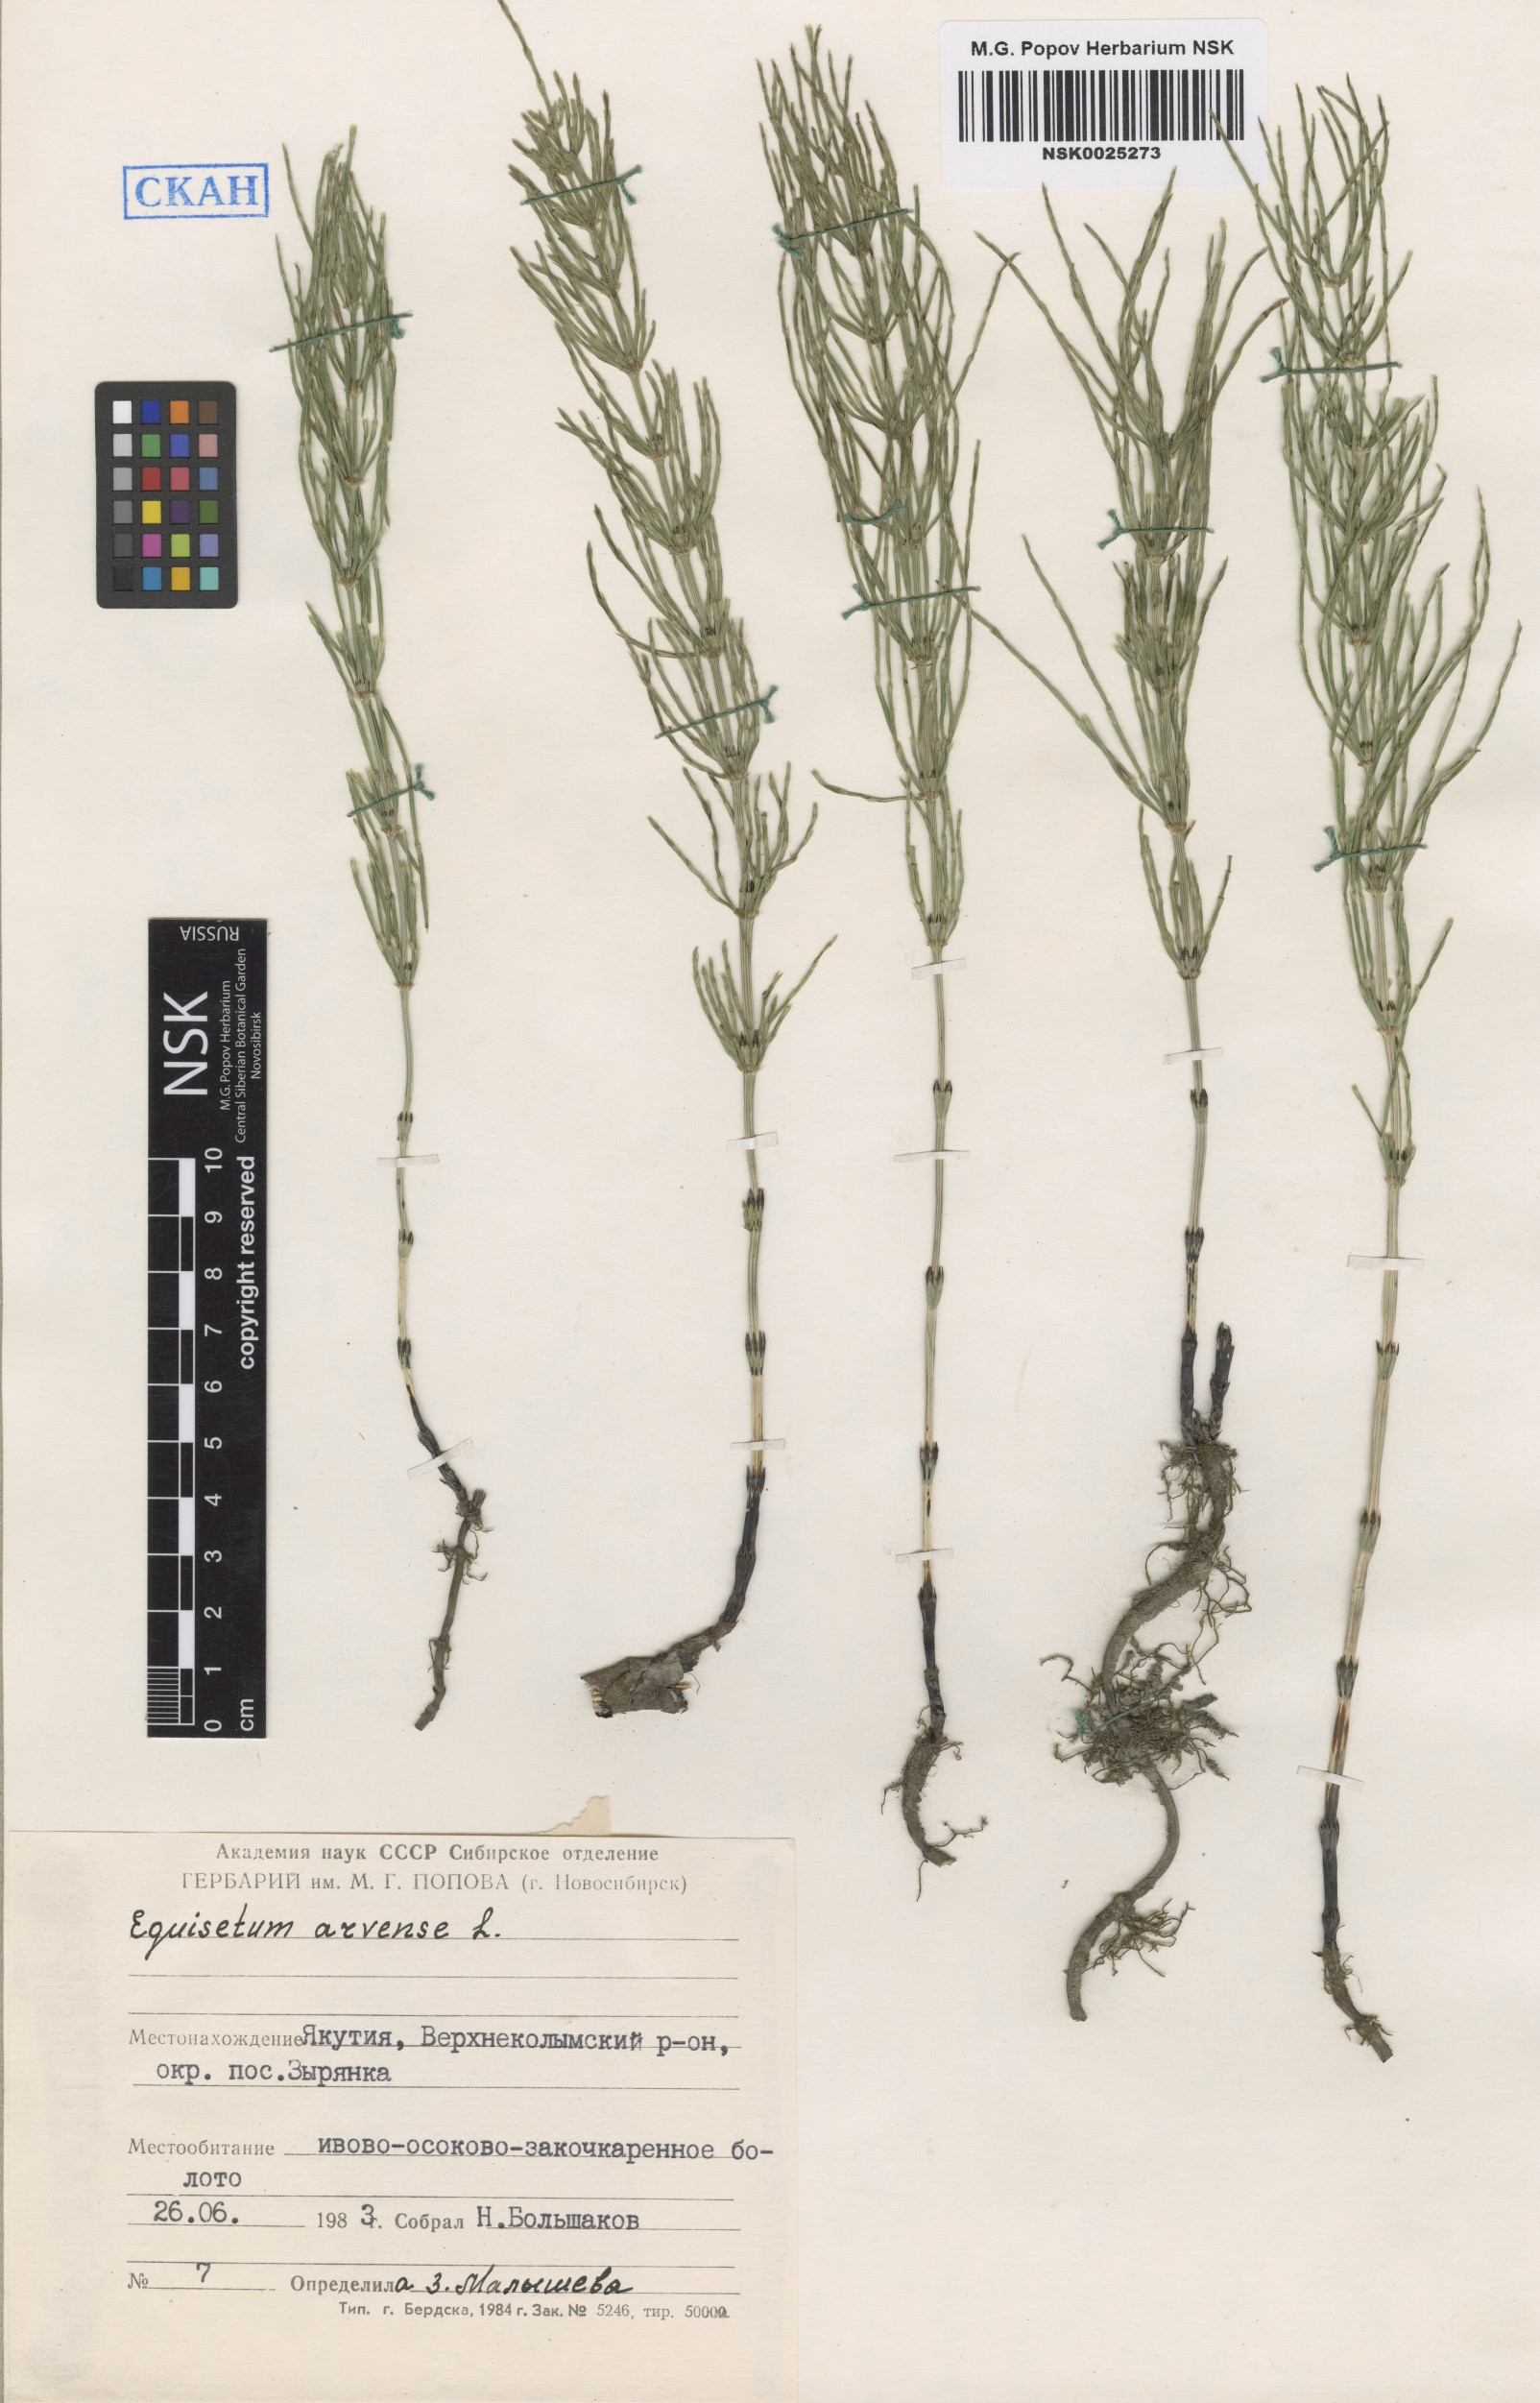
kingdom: Plantae
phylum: Tracheophyta
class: Polypodiopsida
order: Equisetales
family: Equisetaceae
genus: Equisetum
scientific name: Equisetum arvense
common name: Field horsetail
